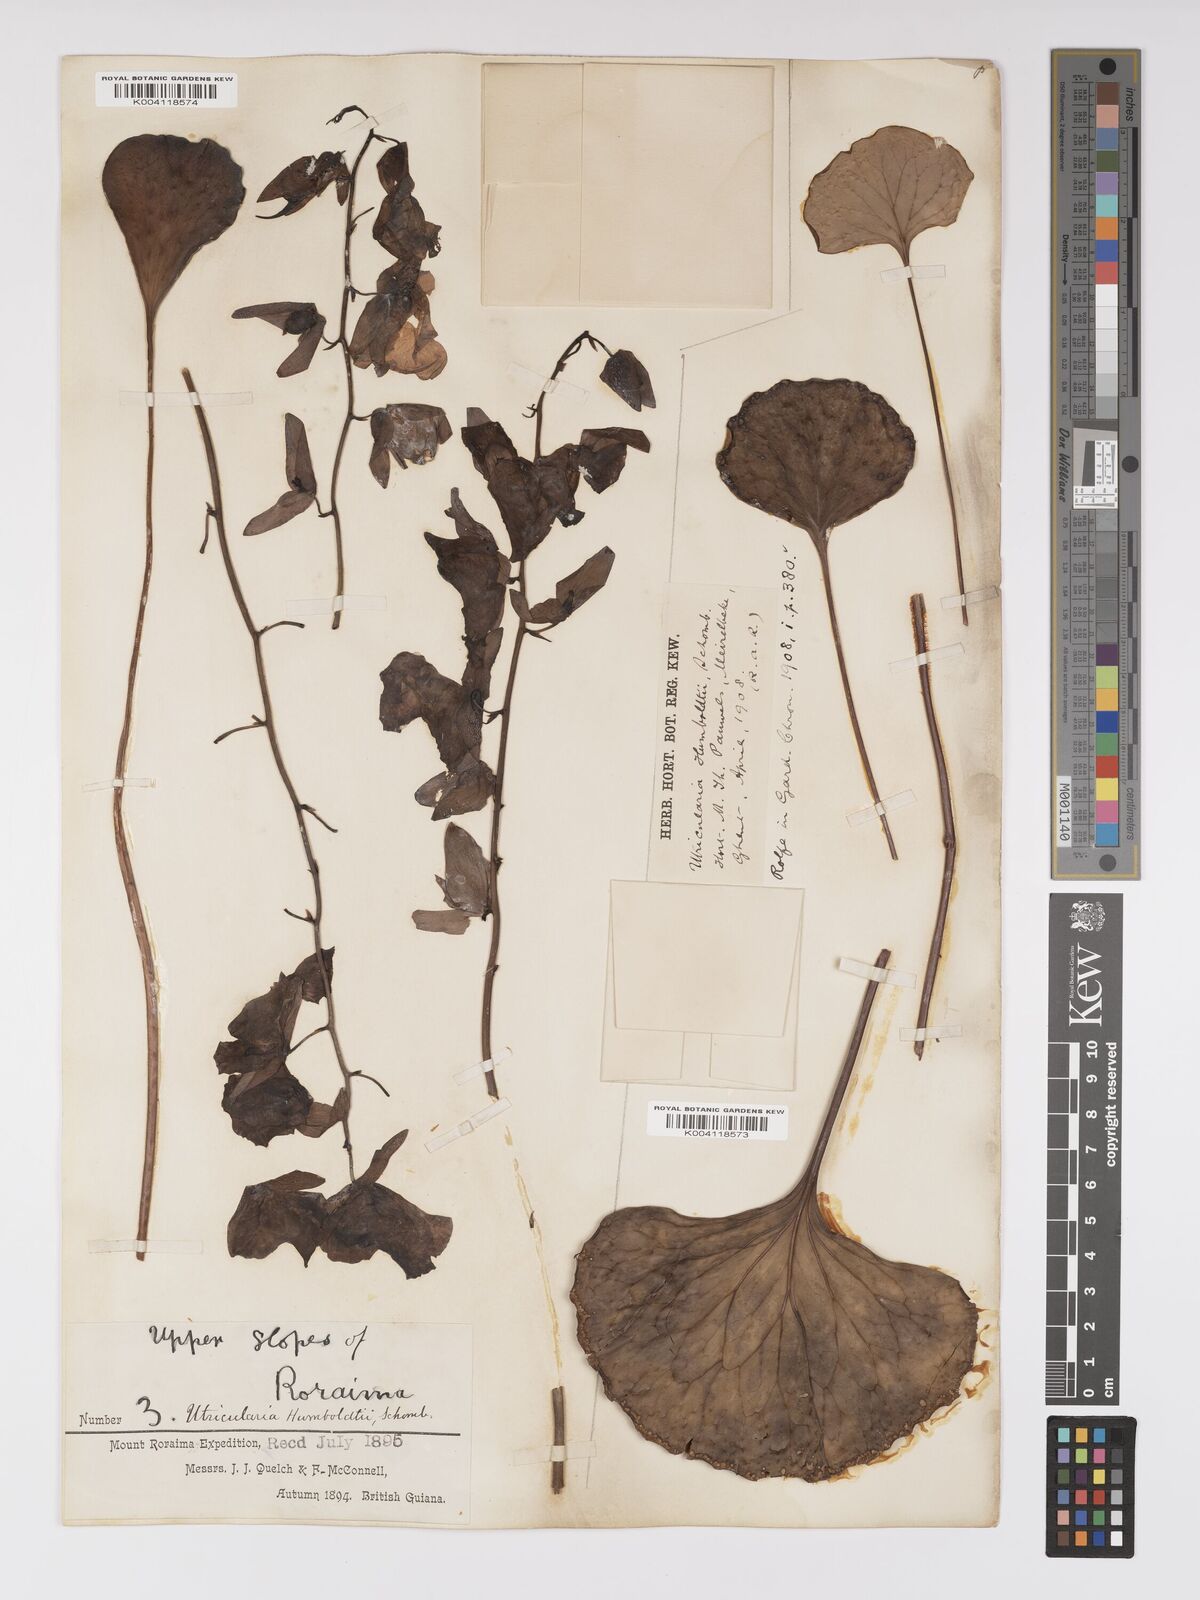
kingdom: Plantae
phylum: Tracheophyta
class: Magnoliopsida
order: Lamiales
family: Lentibulariaceae
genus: Utricularia
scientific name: Utricularia humboldtii
